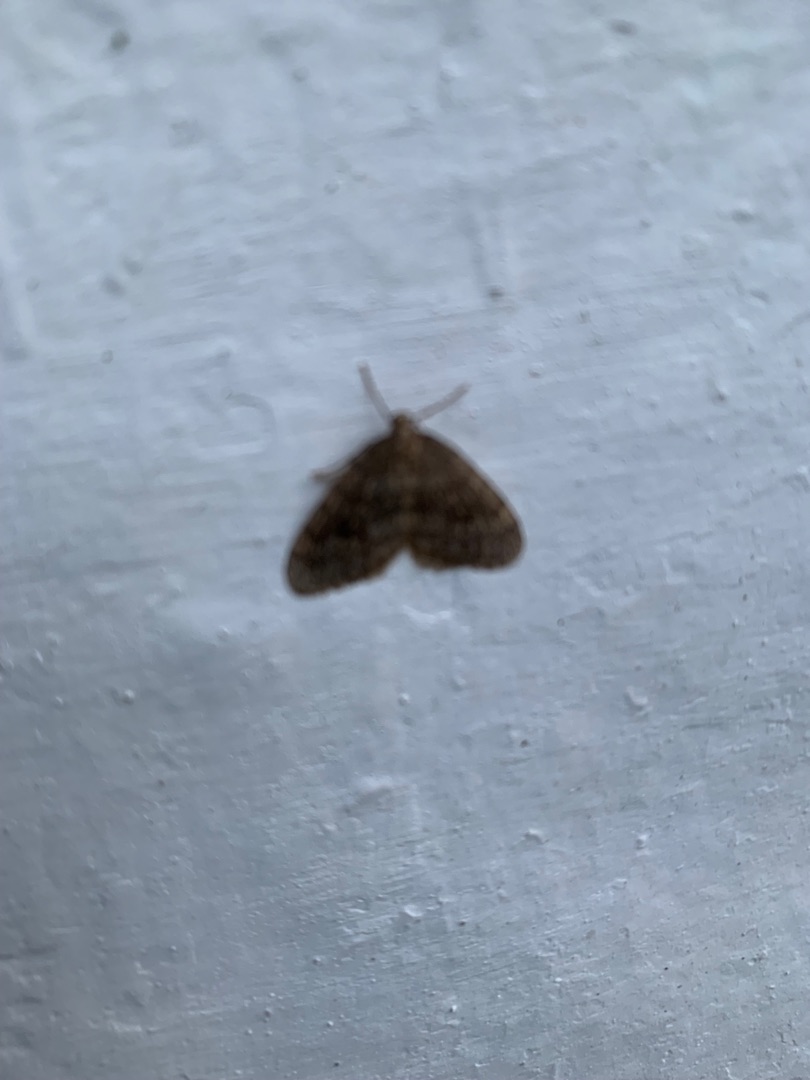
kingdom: Animalia
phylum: Arthropoda
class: Insecta
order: Lepidoptera
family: Geometridae
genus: Operophtera
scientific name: Operophtera brumata
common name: Lille frostmåler
